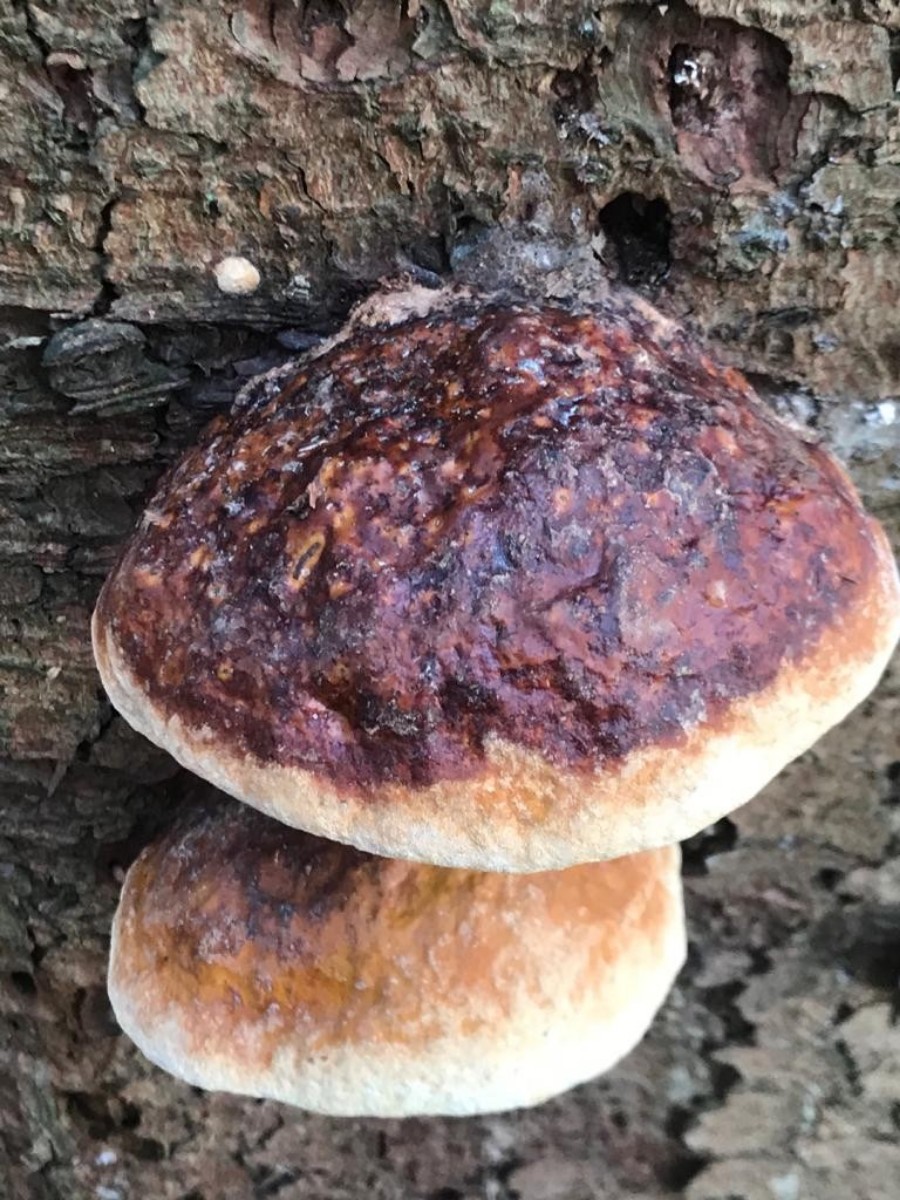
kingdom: Fungi
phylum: Basidiomycota
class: Agaricomycetes
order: Polyporales
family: Fomitopsidaceae
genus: Fomitopsis
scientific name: Fomitopsis pinicola
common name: randbæltet hovporesvamp
